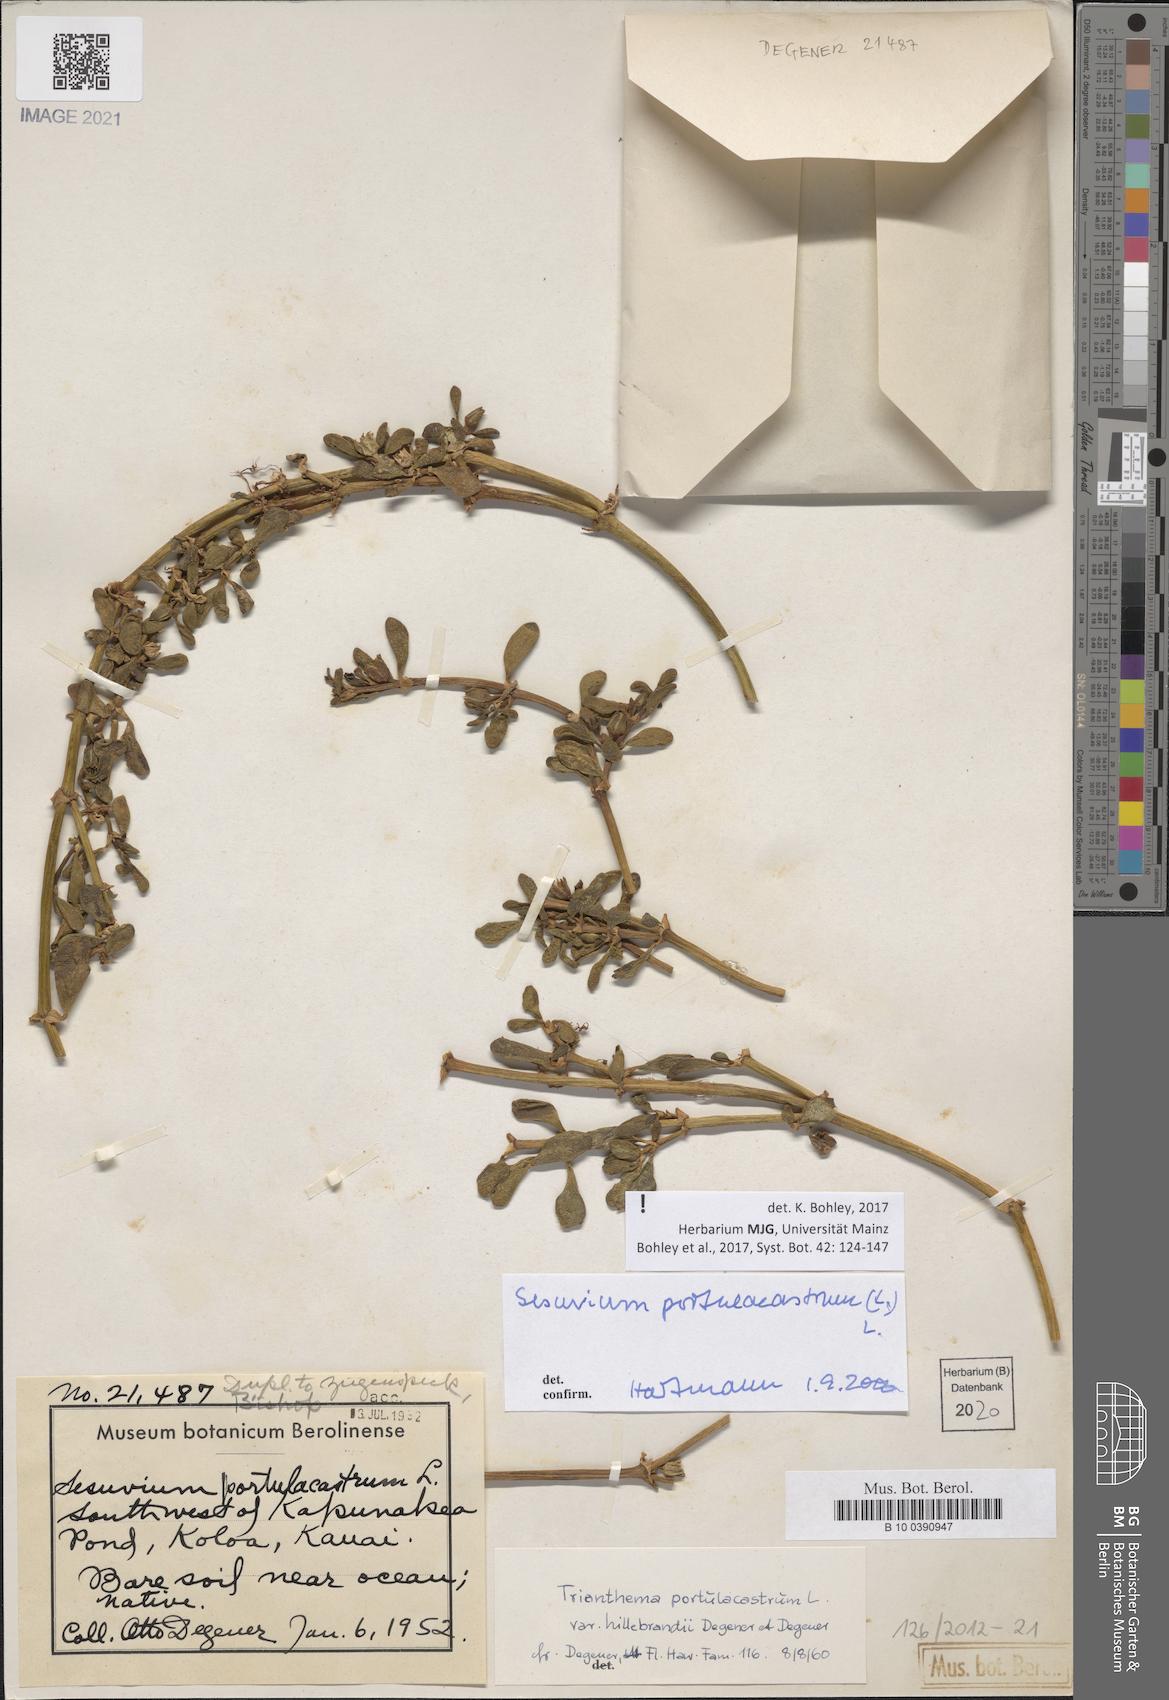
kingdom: Plantae
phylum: Tracheophyta
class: Magnoliopsida
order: Caryophyllales
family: Aizoaceae
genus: Sesuvium
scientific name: Sesuvium portulacastrum
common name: Sea-purslane
